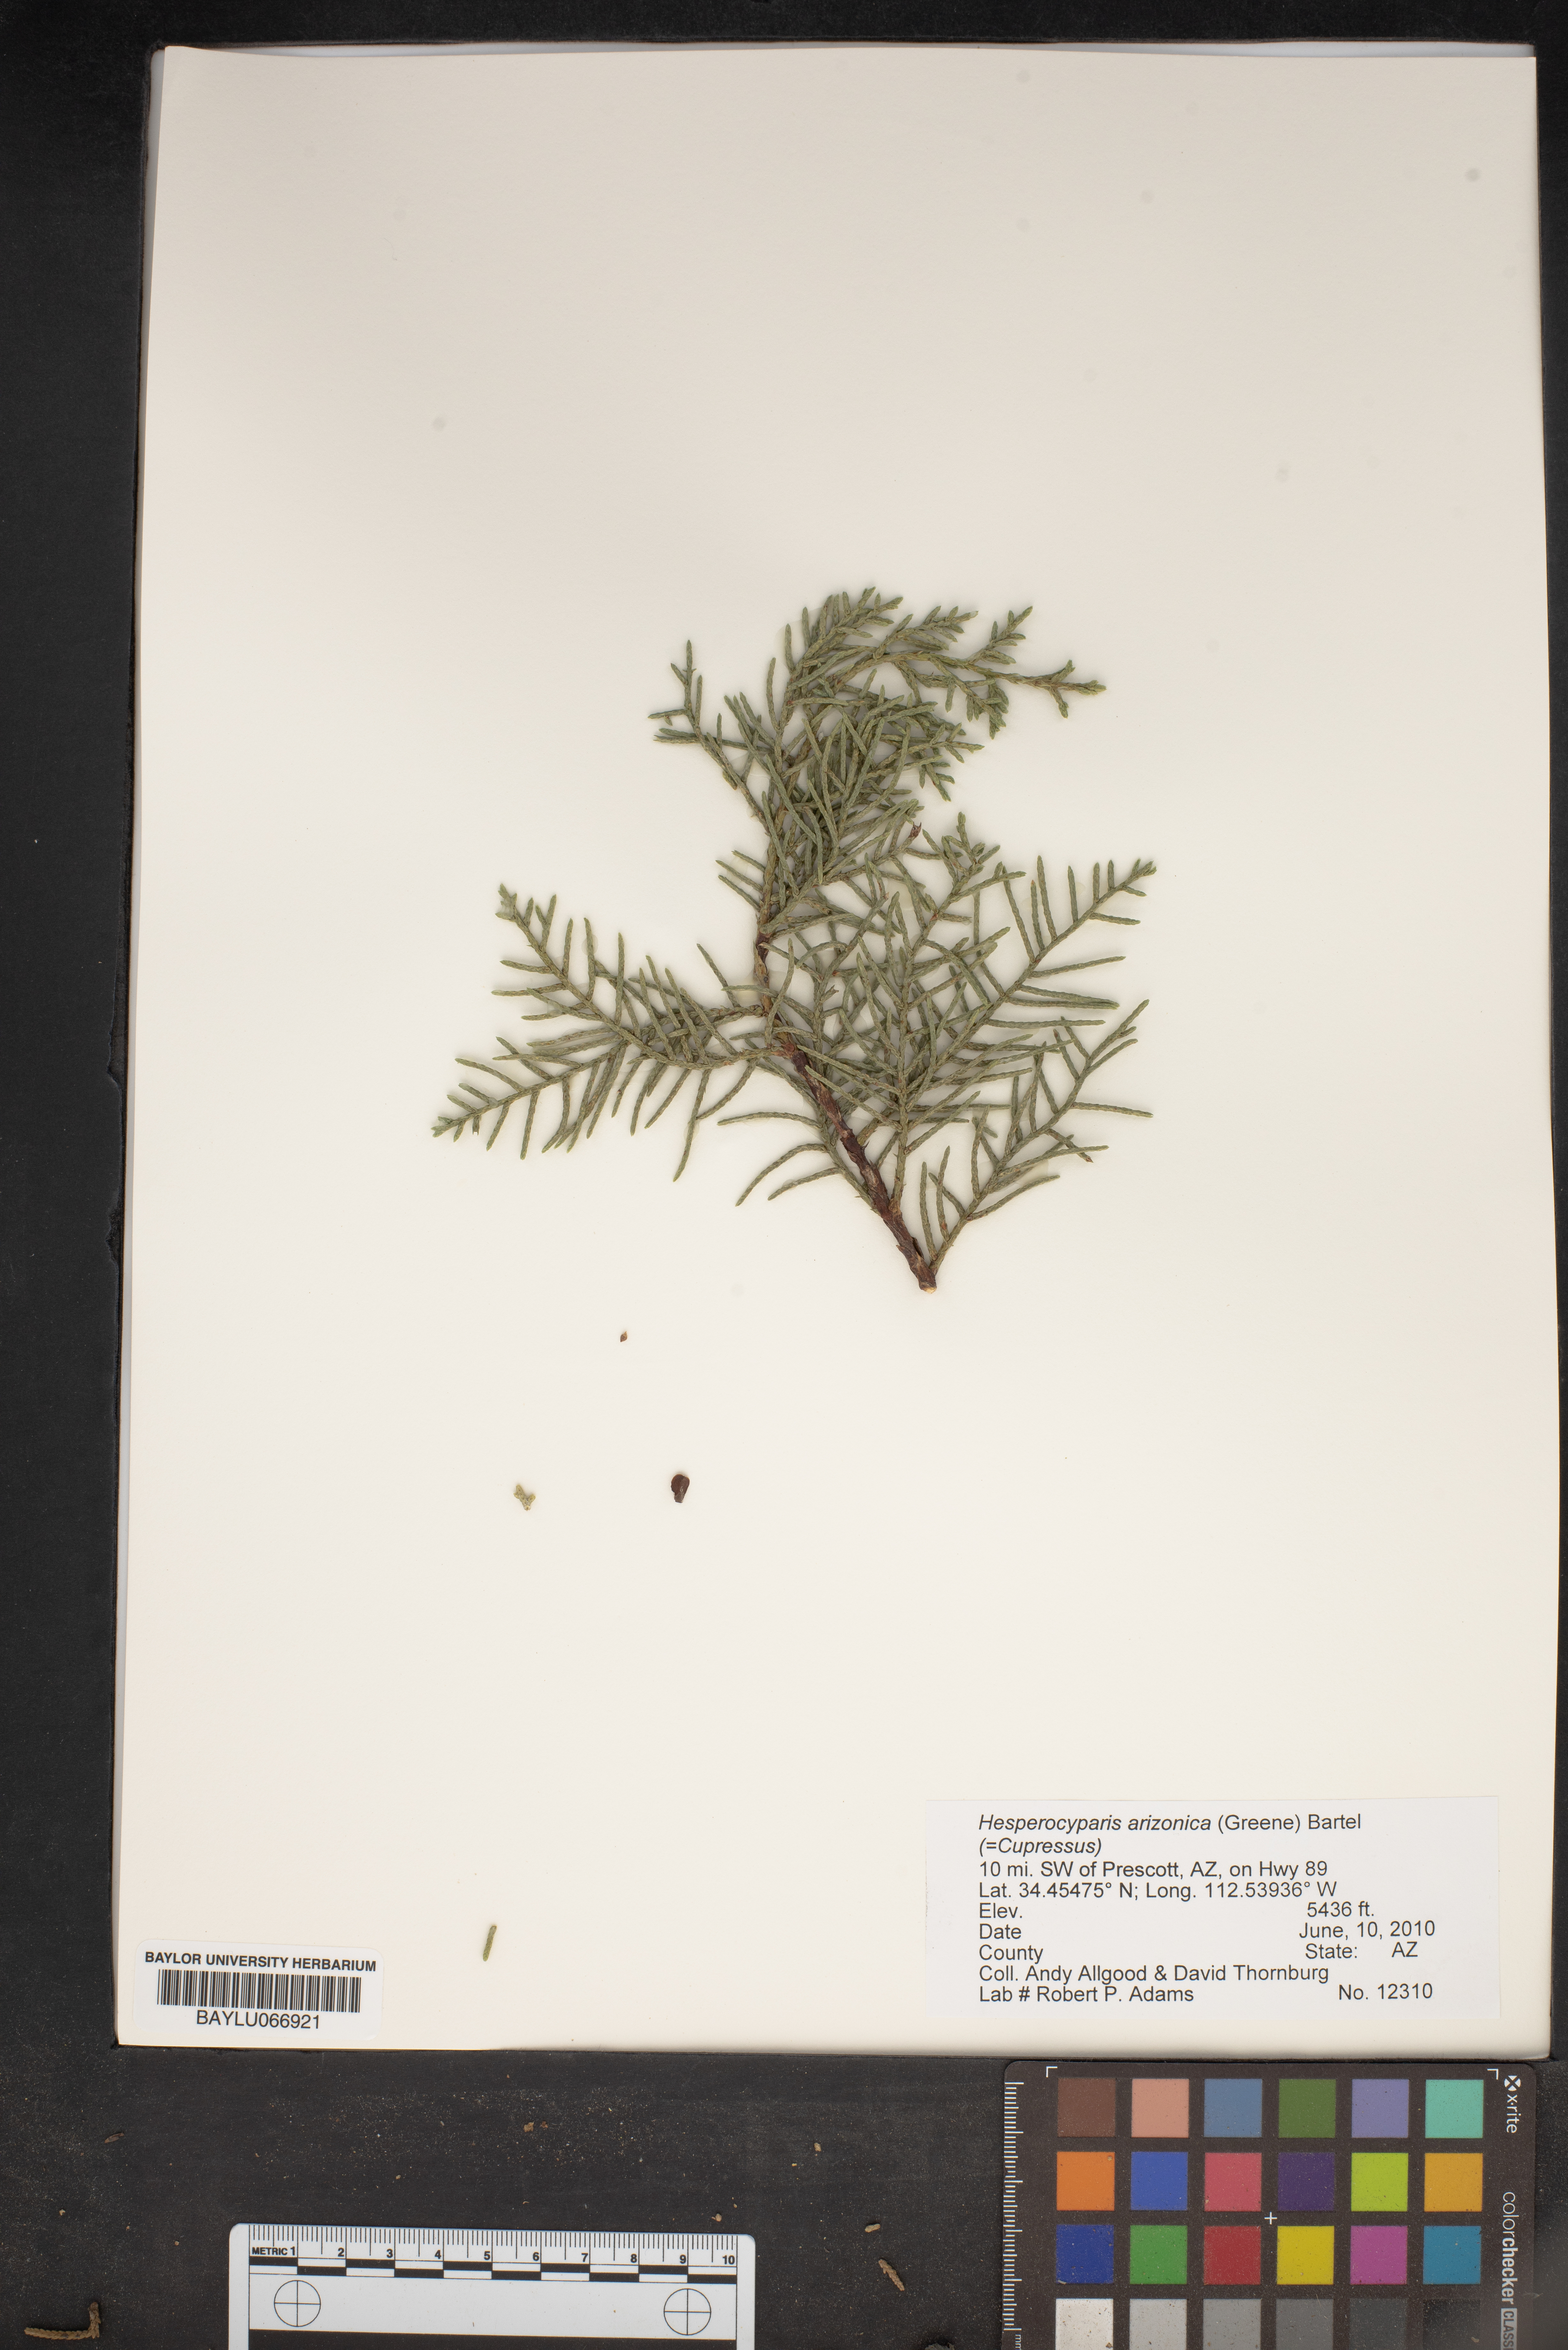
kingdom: Plantae
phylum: Tracheophyta
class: Pinopsida
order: Pinales
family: Cupressaceae
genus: Cupressus
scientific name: Cupressus arizonica
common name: Arizona cypress
